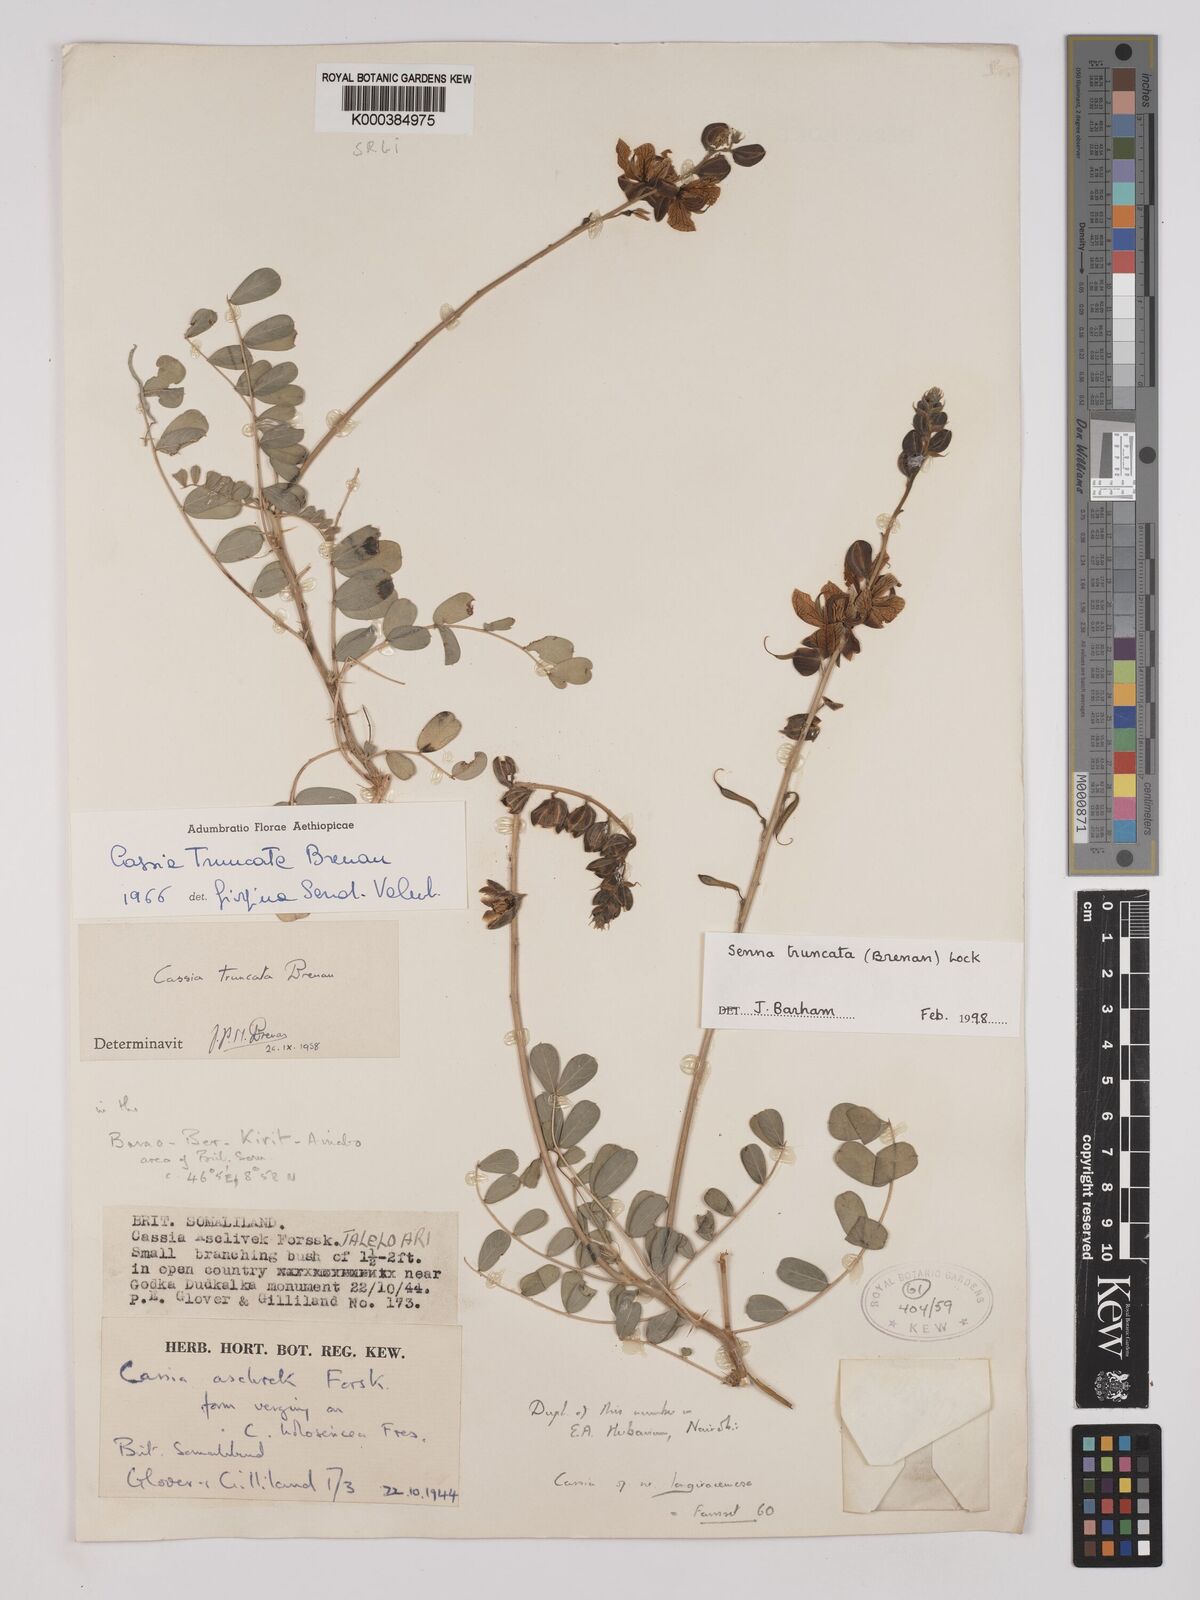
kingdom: Plantae
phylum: Tracheophyta
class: Magnoliopsida
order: Fabales
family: Fabaceae
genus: Senna
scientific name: Senna truncata
